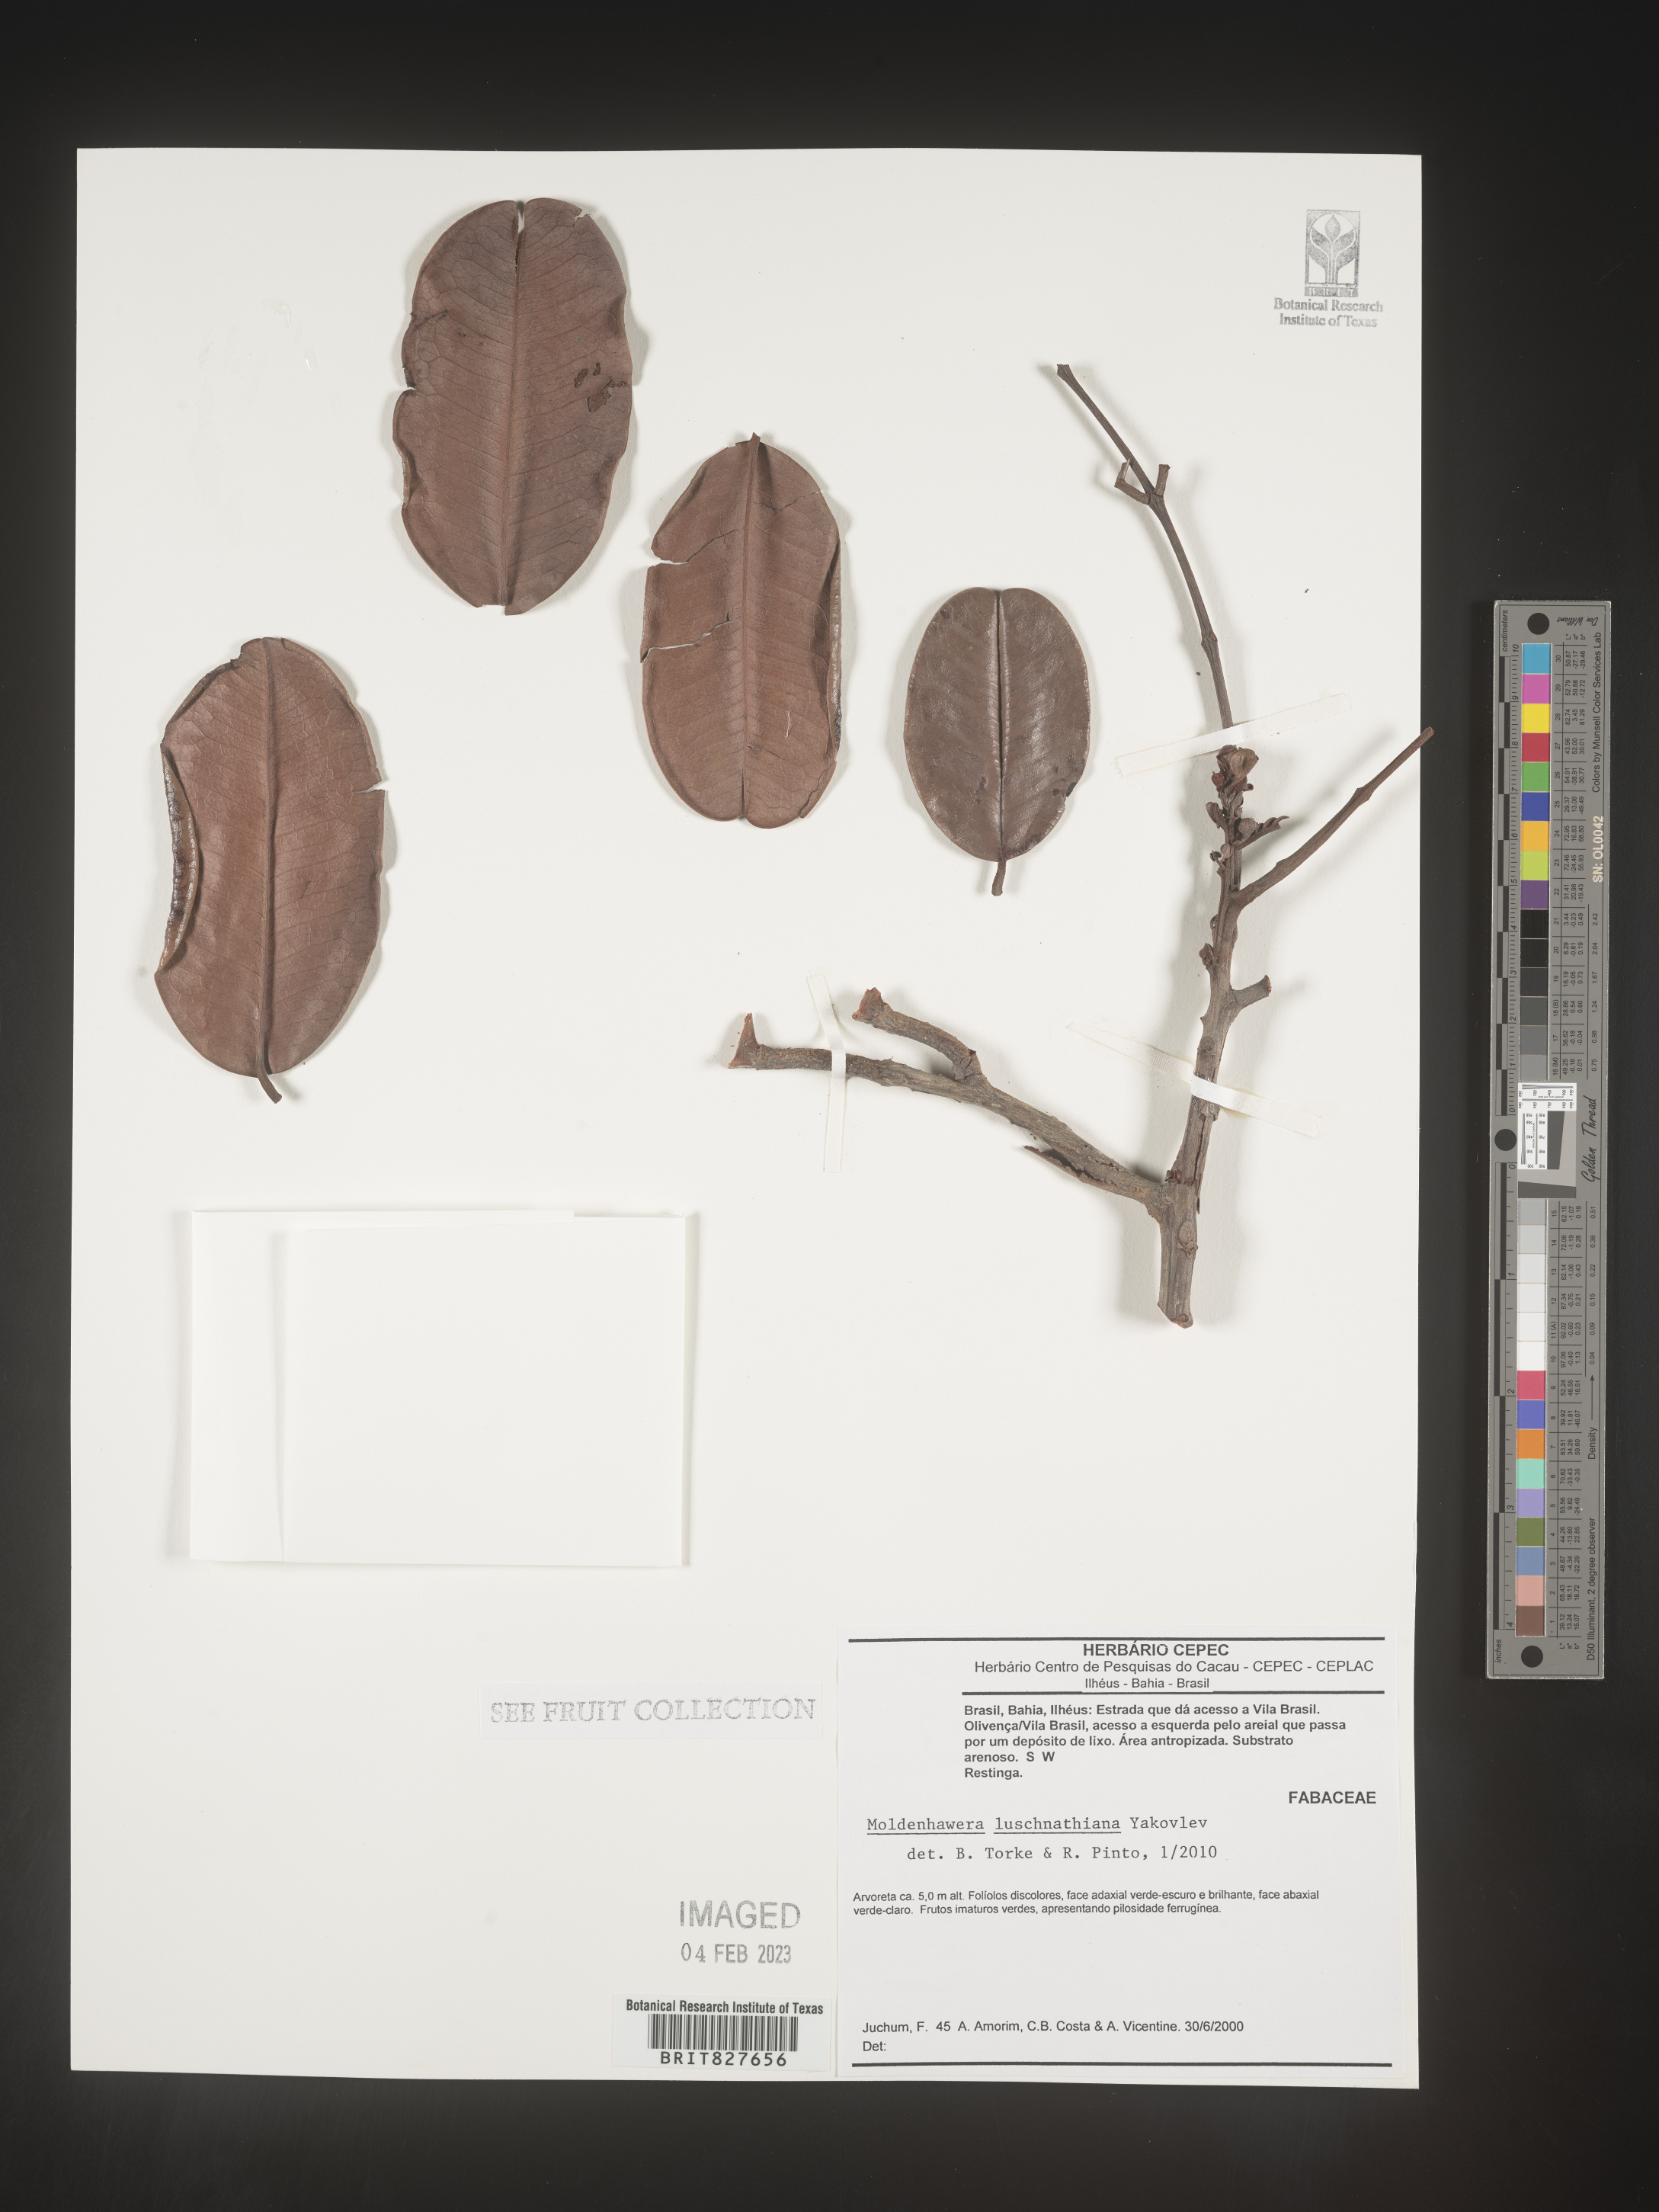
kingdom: Plantae
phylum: Tracheophyta
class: Magnoliopsida
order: Fabales
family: Fabaceae
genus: Moldenhawera
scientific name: Moldenhawera
